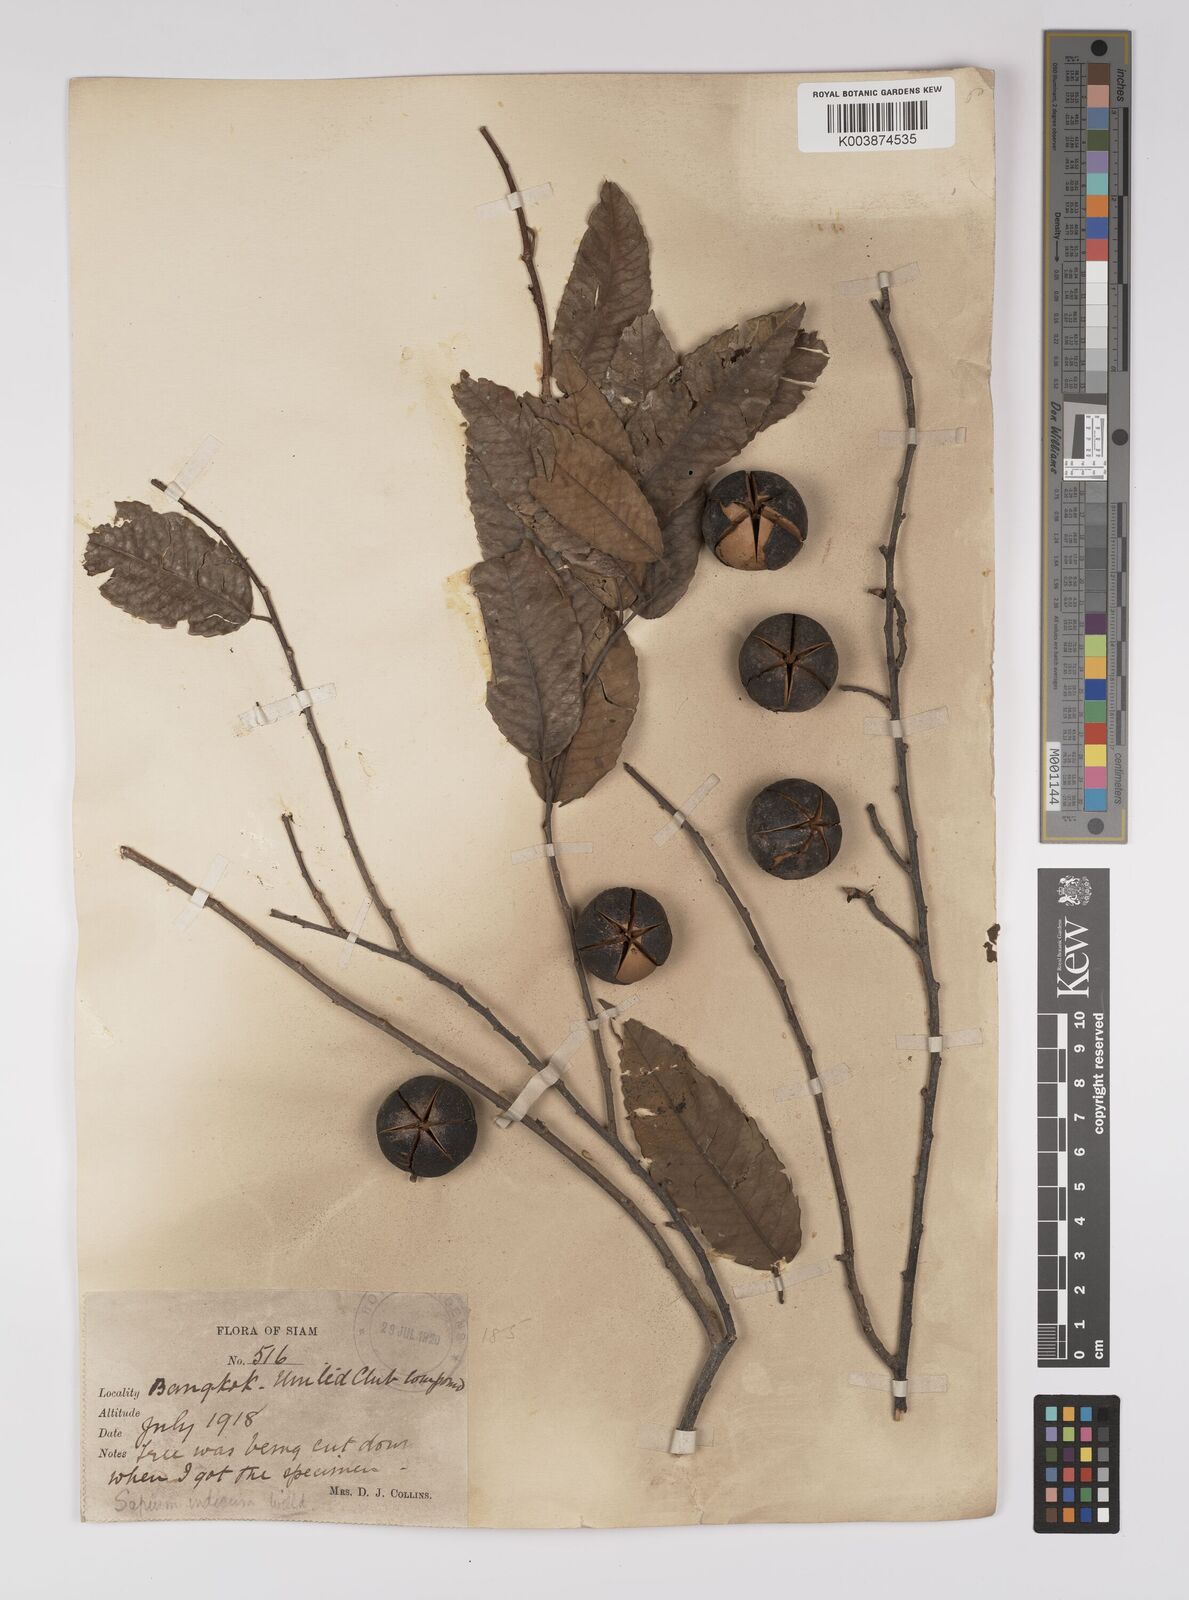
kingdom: Plantae
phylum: Tracheophyta
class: Magnoliopsida
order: Malpighiales
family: Euphorbiaceae
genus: Shirakiopsis
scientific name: Shirakiopsis indica
